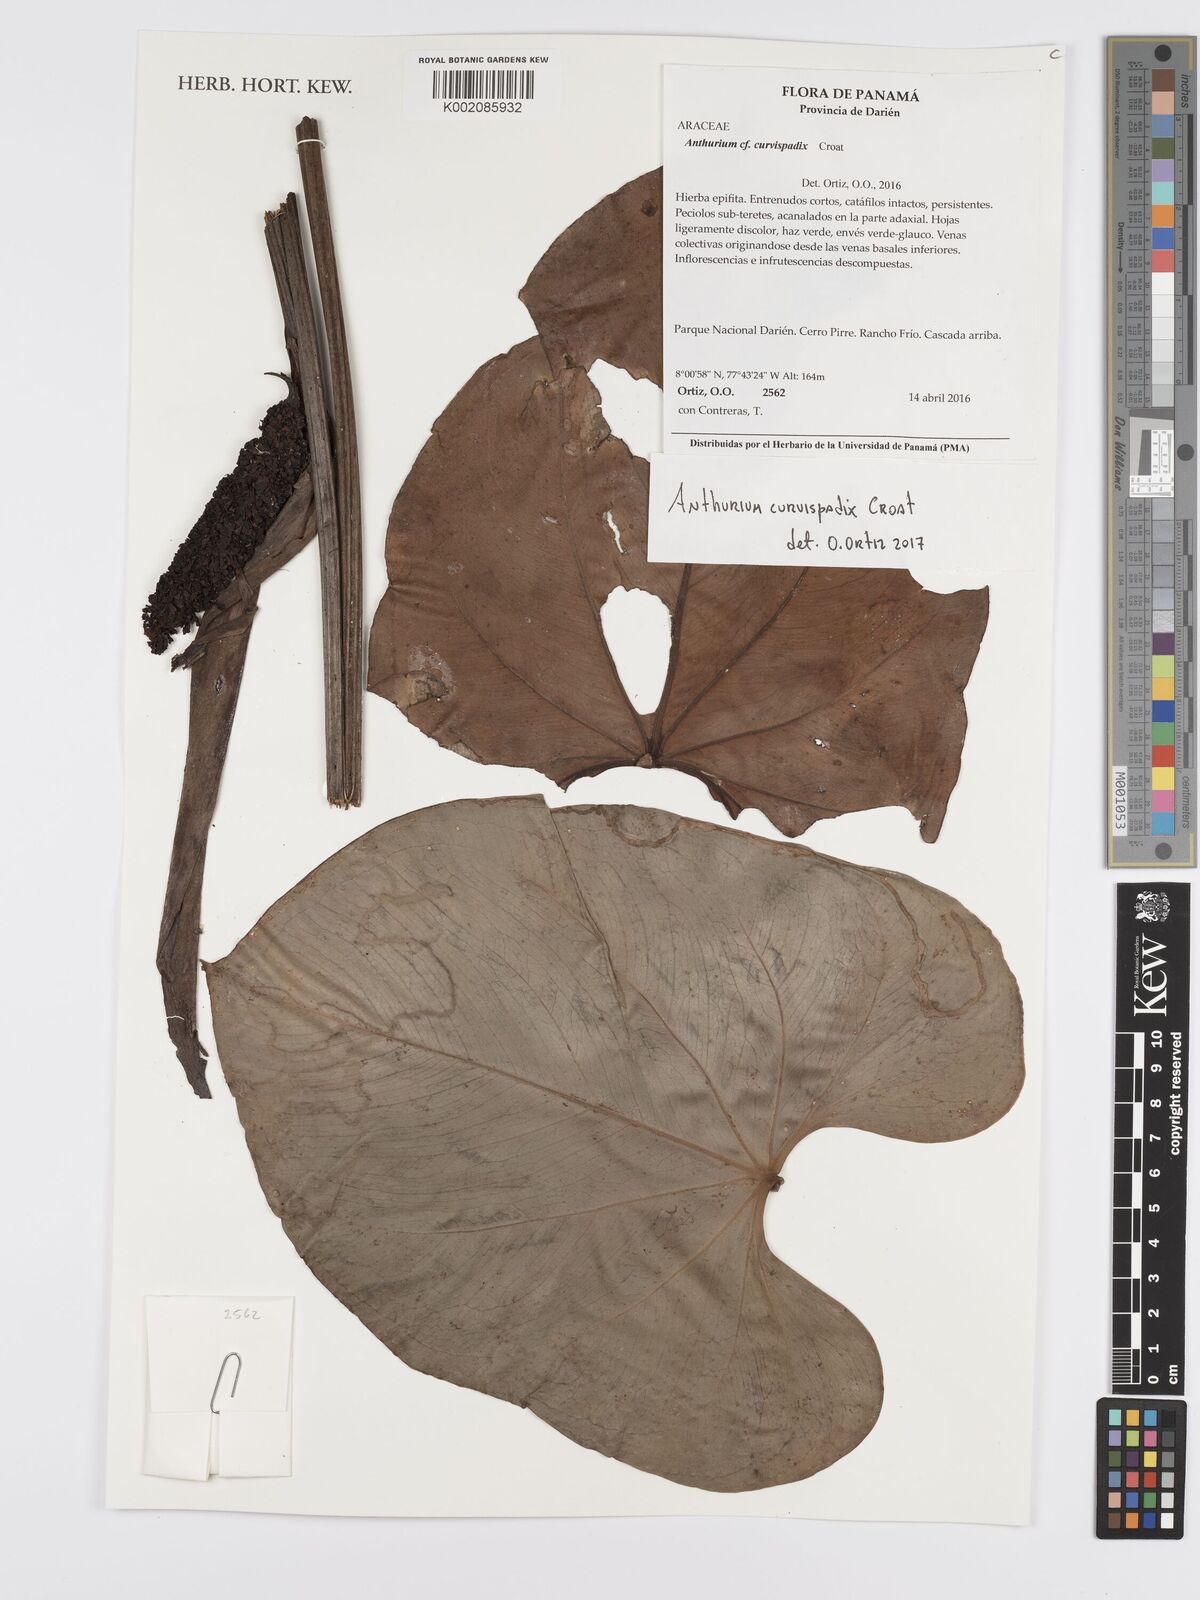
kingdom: Plantae
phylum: Tracheophyta
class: Liliopsida
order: Alismatales
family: Araceae
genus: Anthurium
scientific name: Anthurium curvispadix
